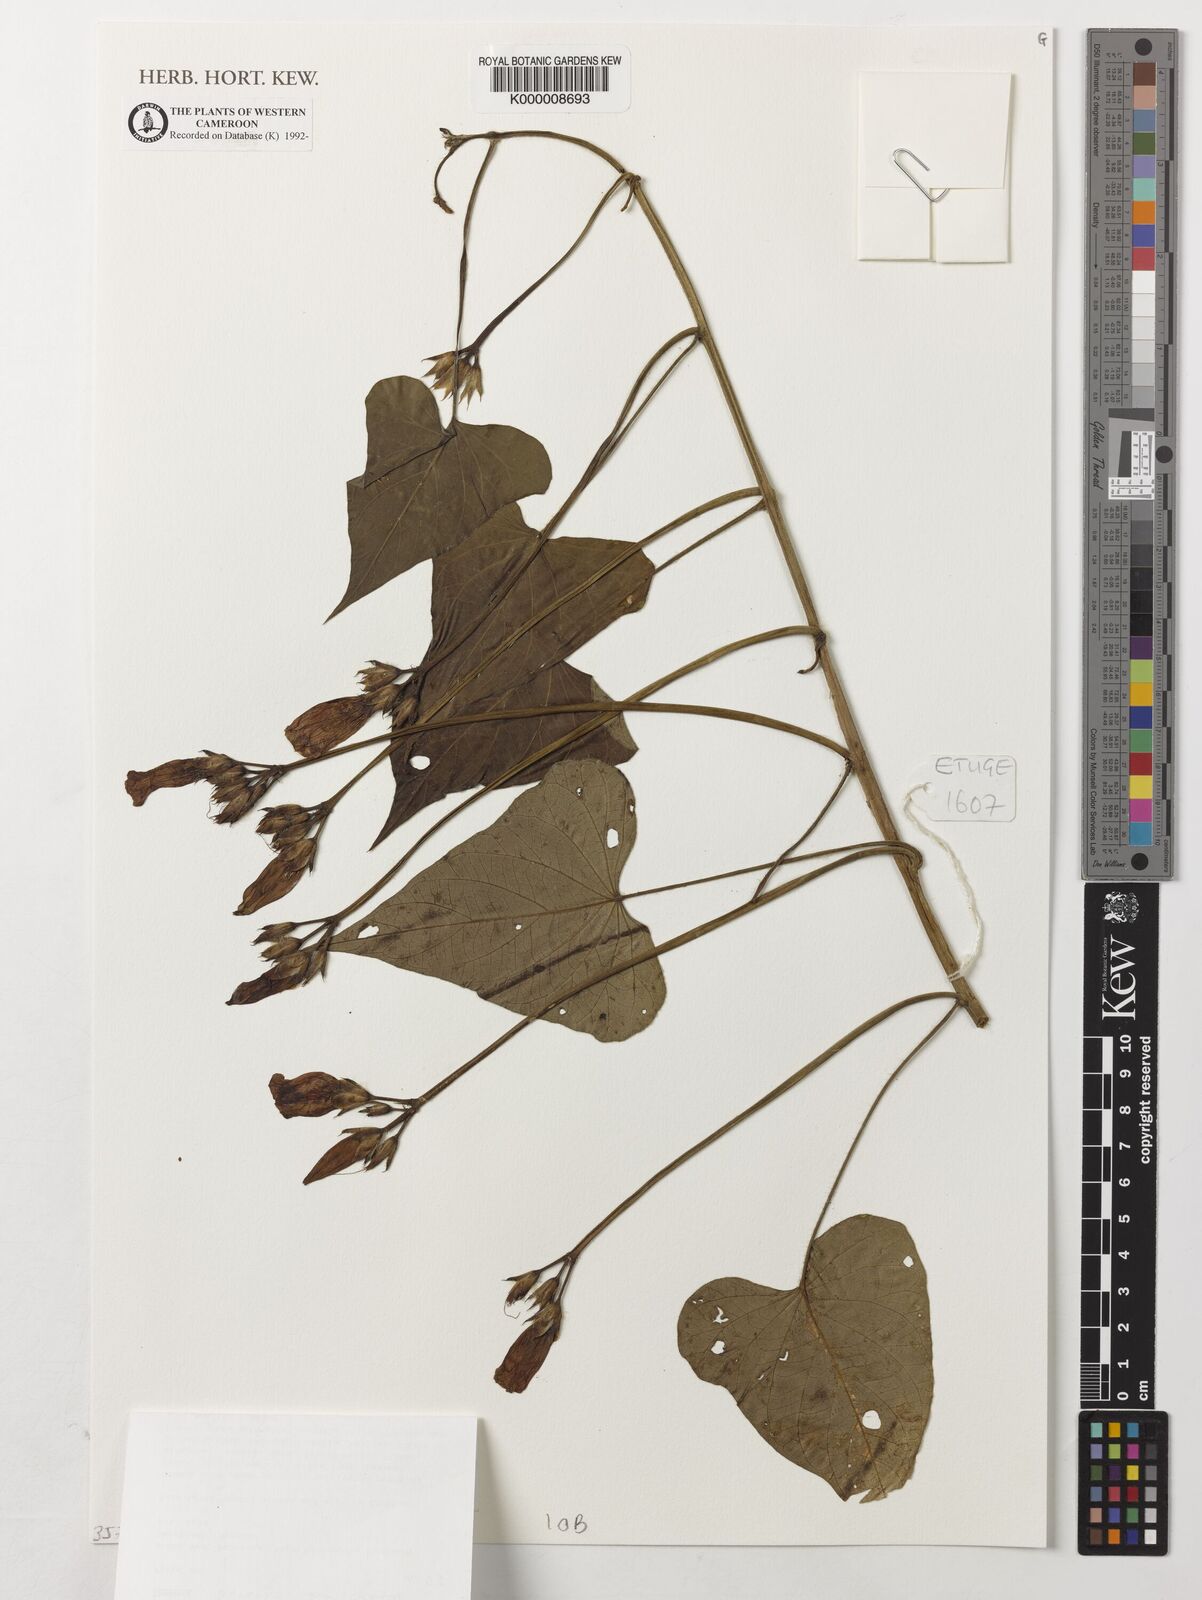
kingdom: Plantae
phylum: Tracheophyta
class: Magnoliopsida
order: Solanales
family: Convolvulaceae
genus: Ipomoea
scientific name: Ipomoea batatas
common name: Sweet-potato
